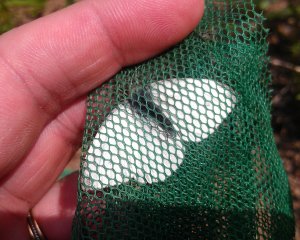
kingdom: Animalia
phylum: Arthropoda
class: Insecta
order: Lepidoptera
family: Pieridae
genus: Pieris
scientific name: Pieris rapae
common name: Cabbage White
